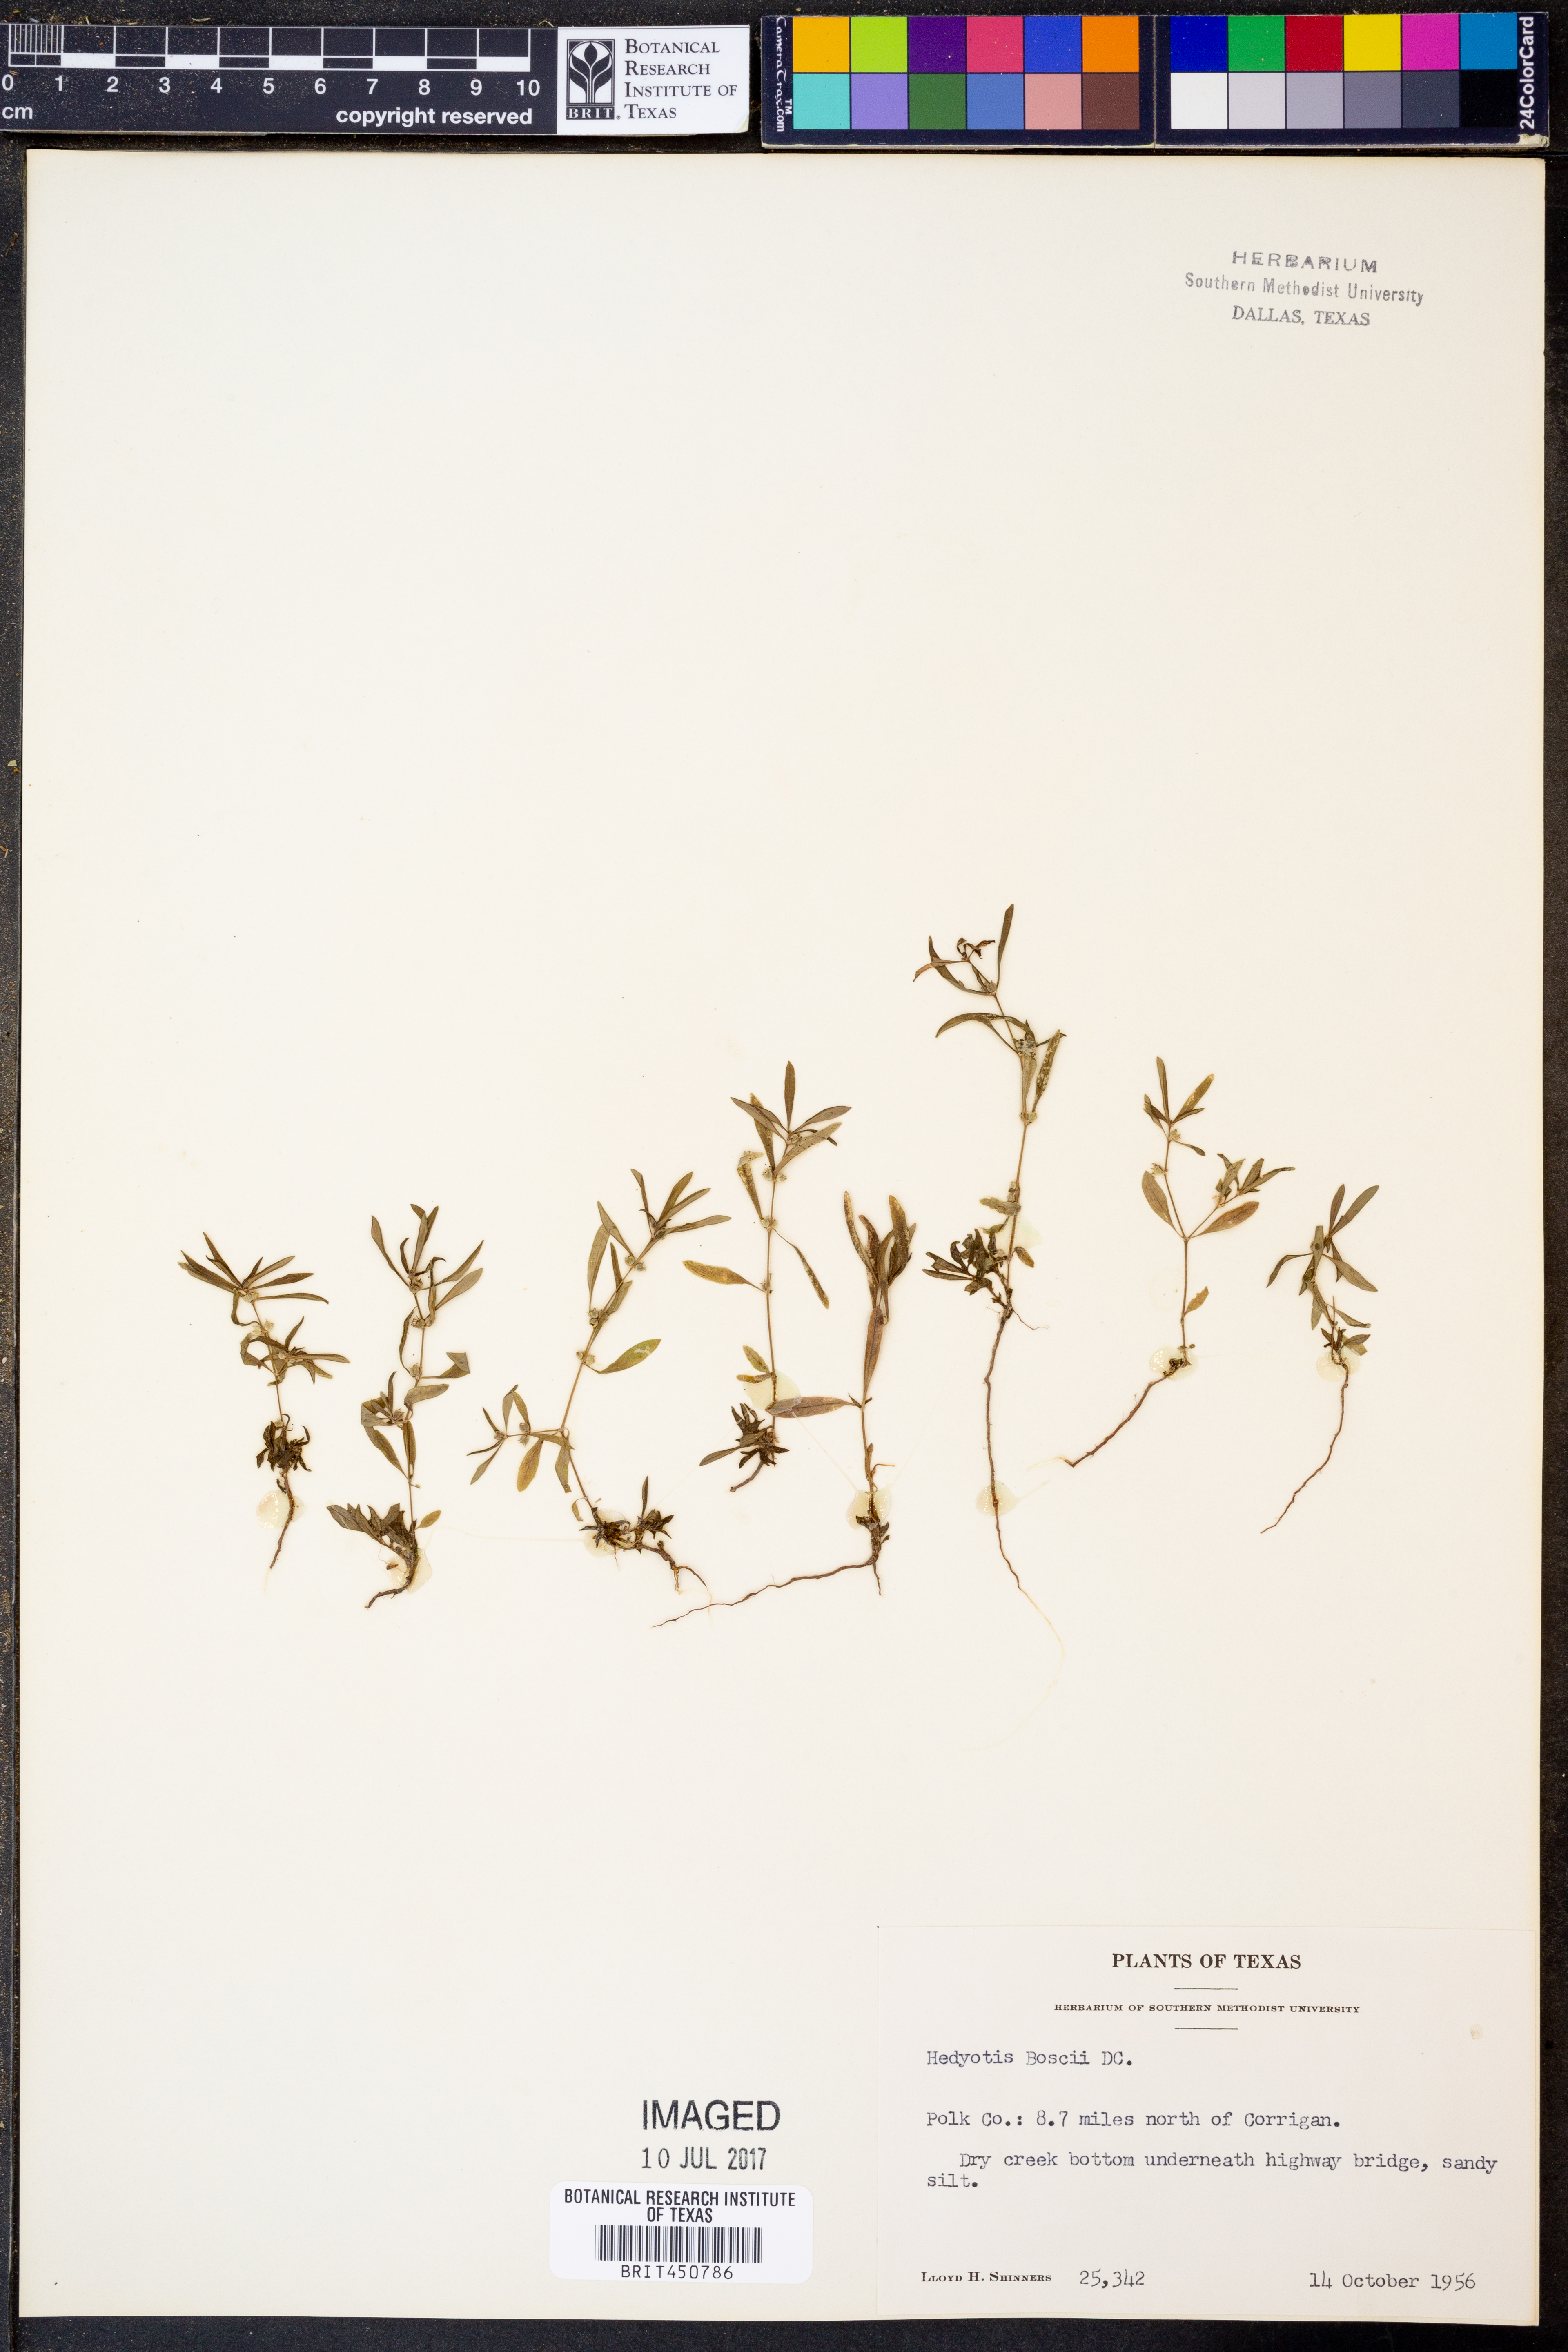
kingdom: Plantae
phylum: Tracheophyta
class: Magnoliopsida
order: Gentianales
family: Rubiaceae
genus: Oldenlandia
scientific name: Oldenlandia boscii
